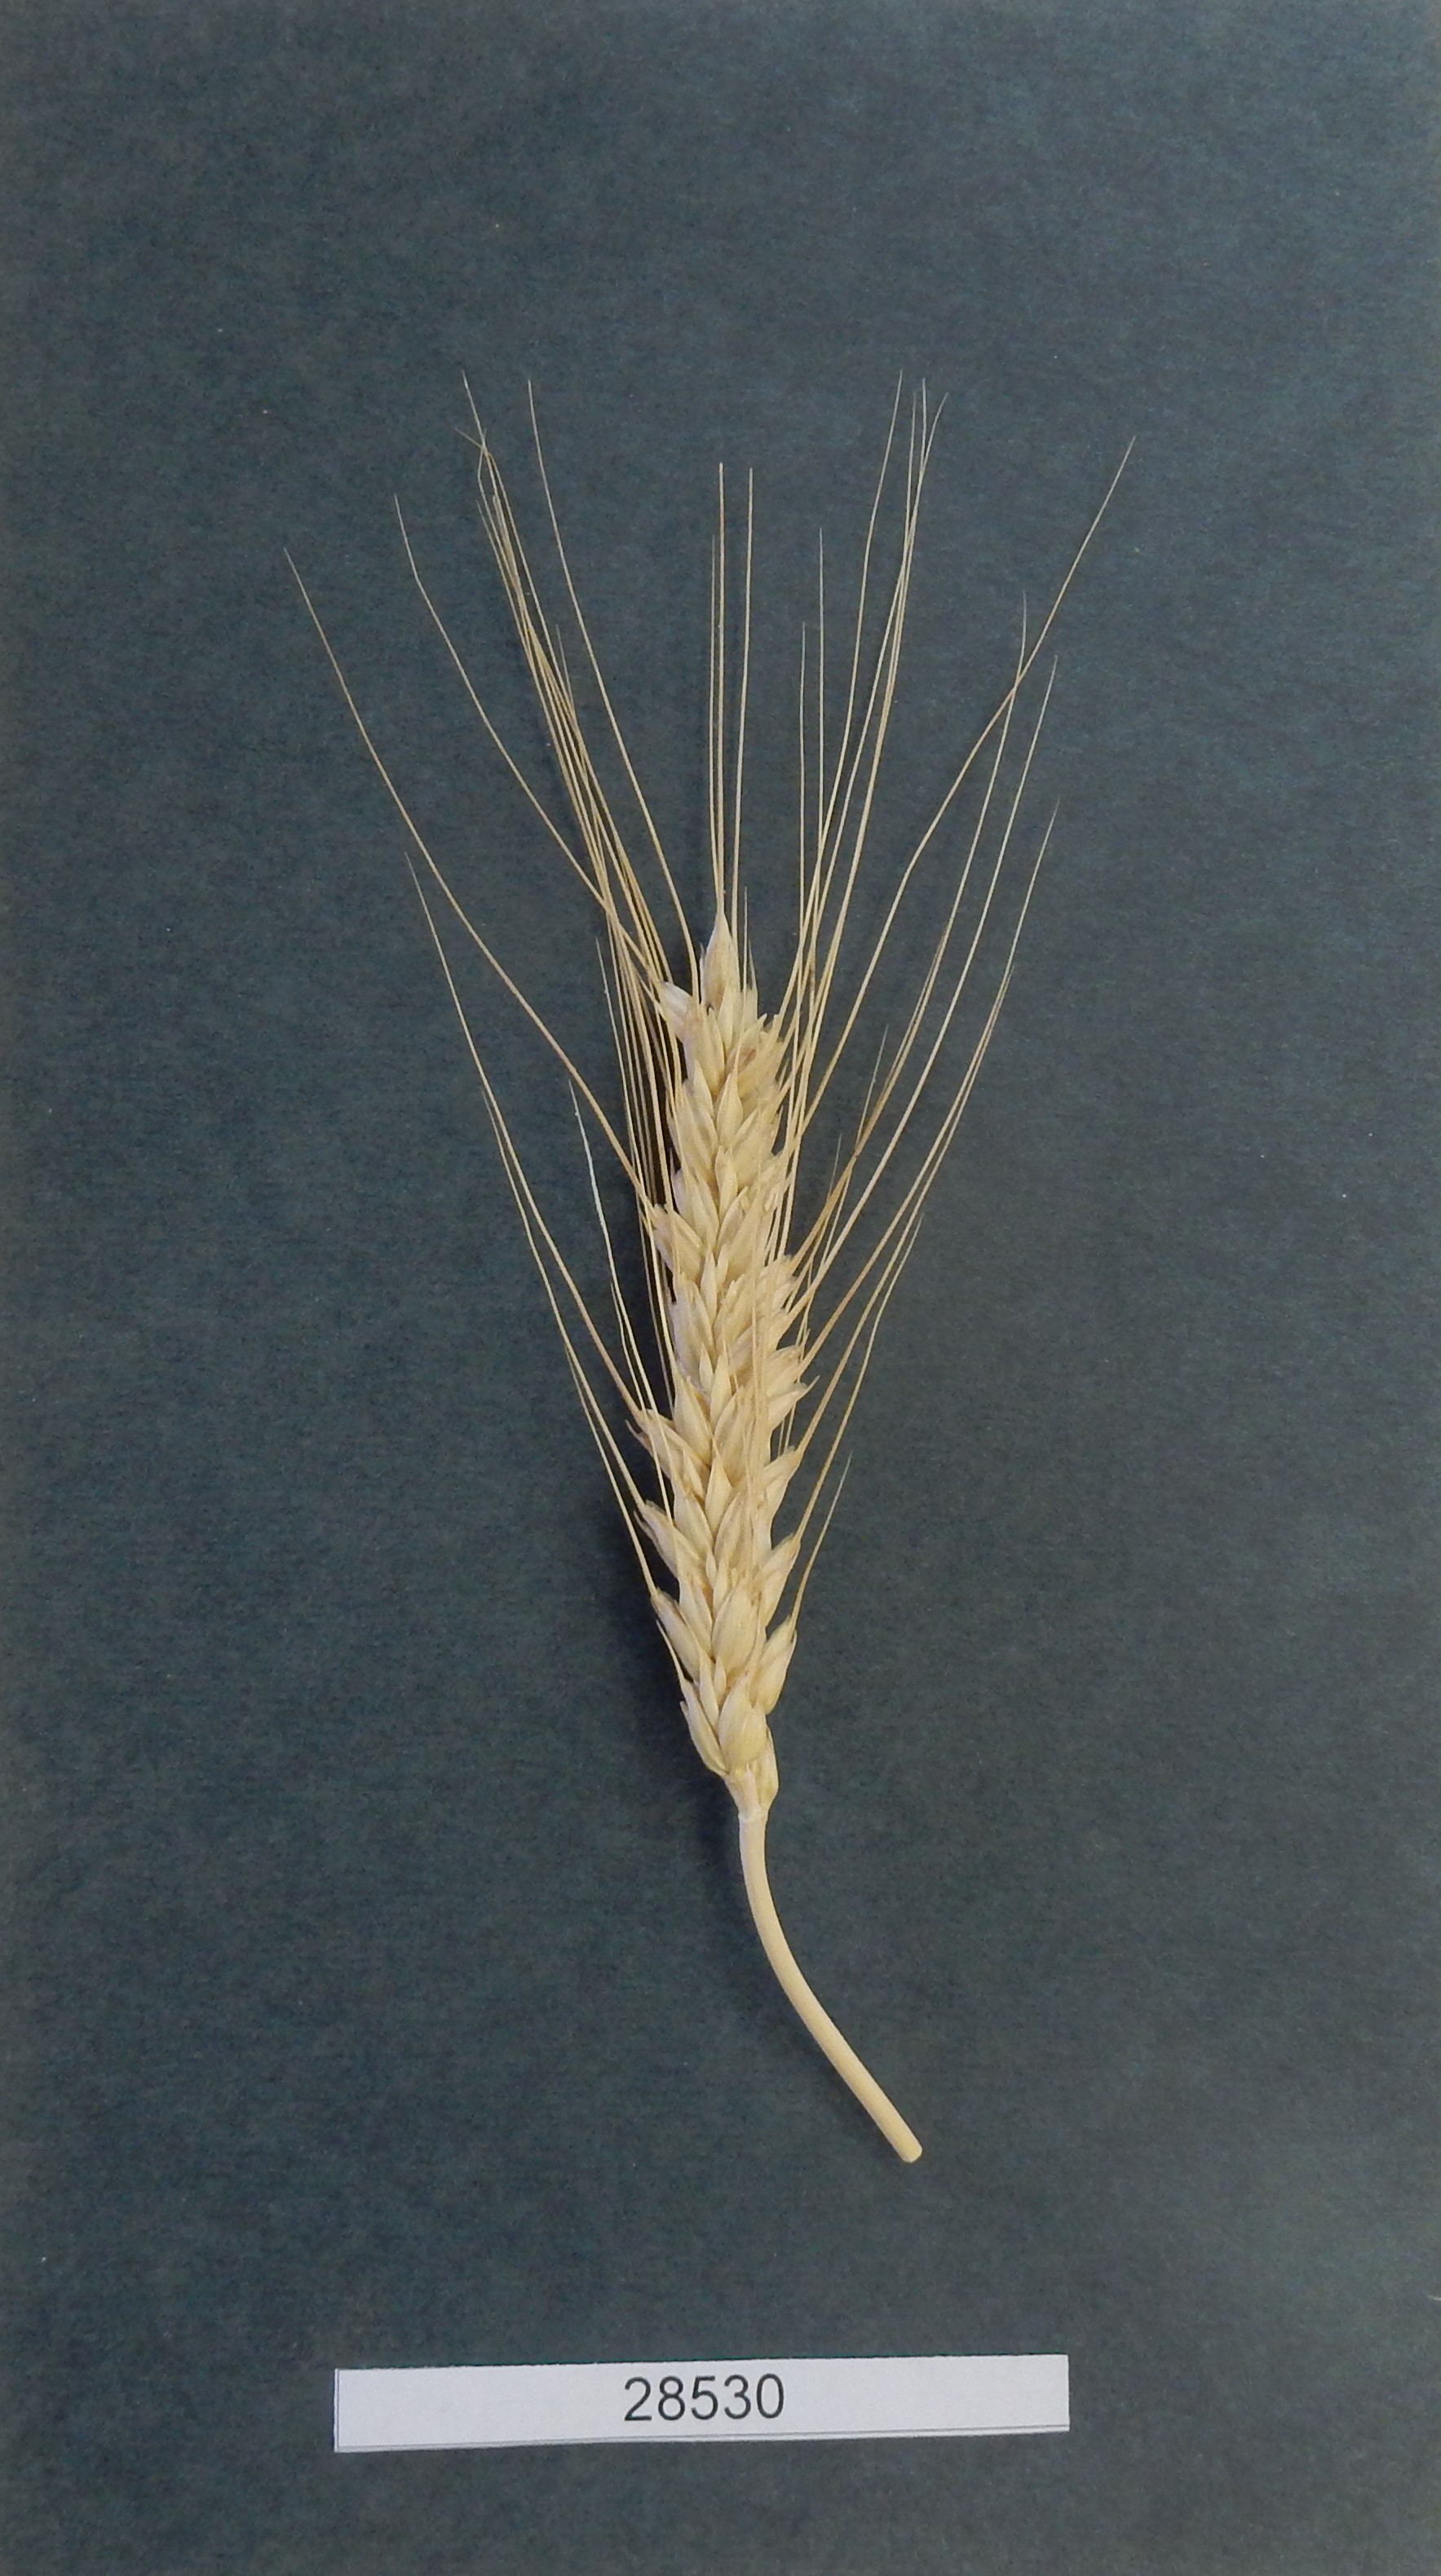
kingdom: Plantae
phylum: Tracheophyta
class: Liliopsida
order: Poales
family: Poaceae
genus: Triticum
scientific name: Triticum aestivum
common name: Common wheat
